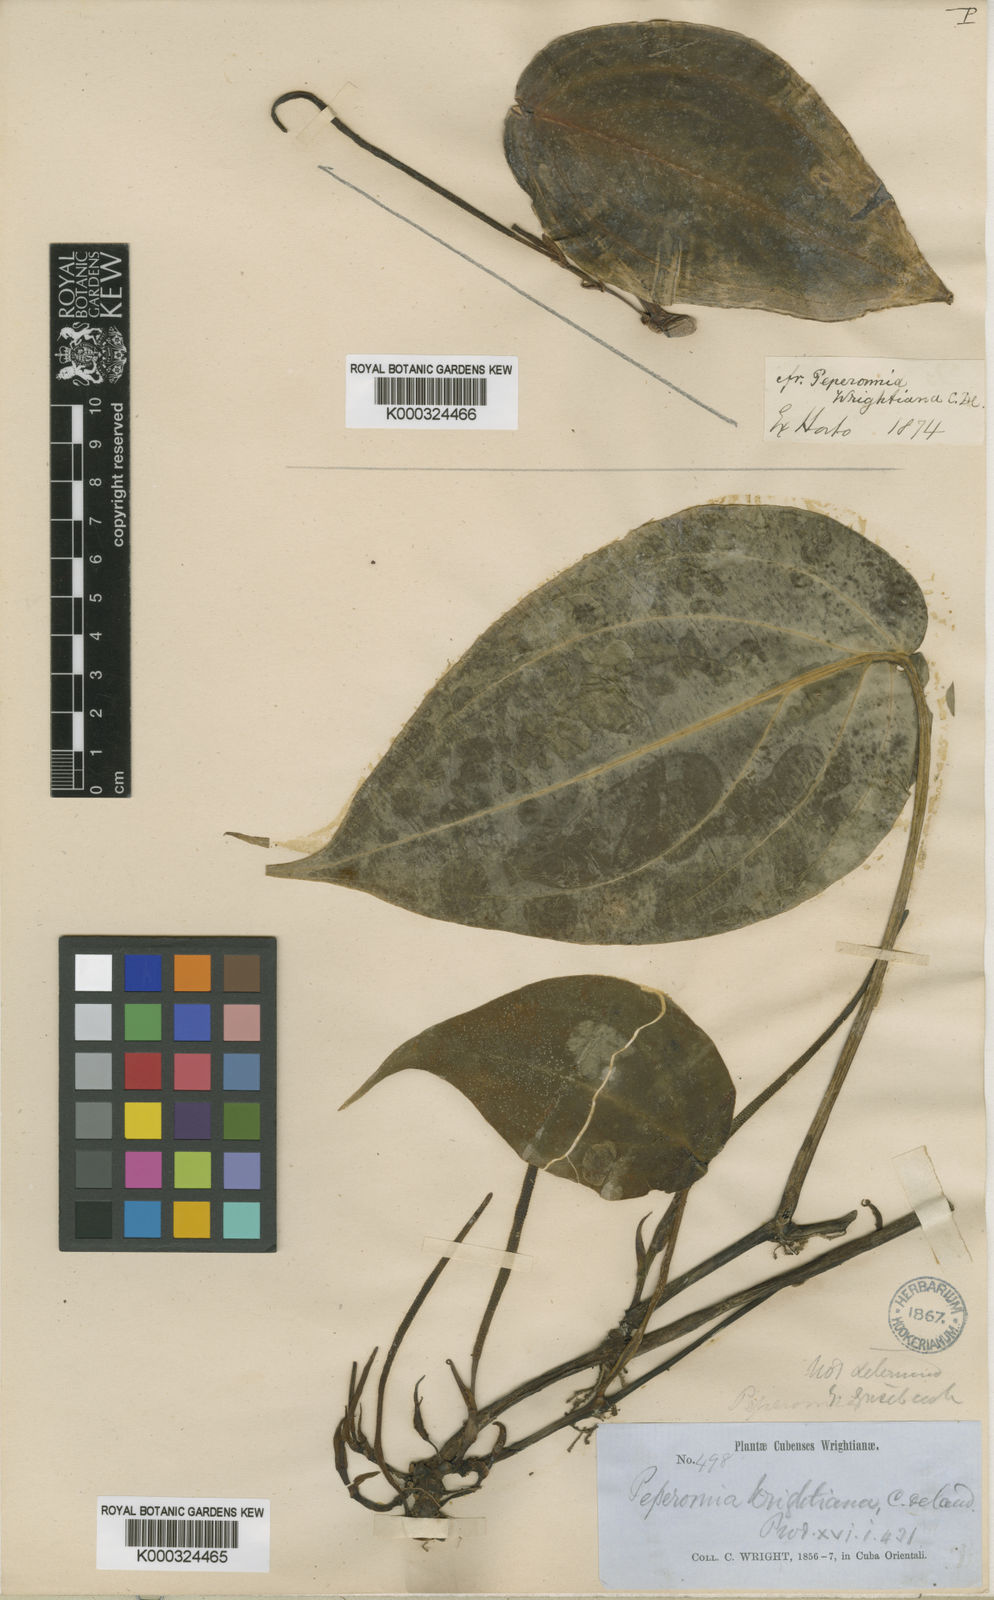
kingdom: Plantae
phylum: Tracheophyta
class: Magnoliopsida
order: Piperales
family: Piperaceae
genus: Peperomia
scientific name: Peperomia pseudorhynchophora
